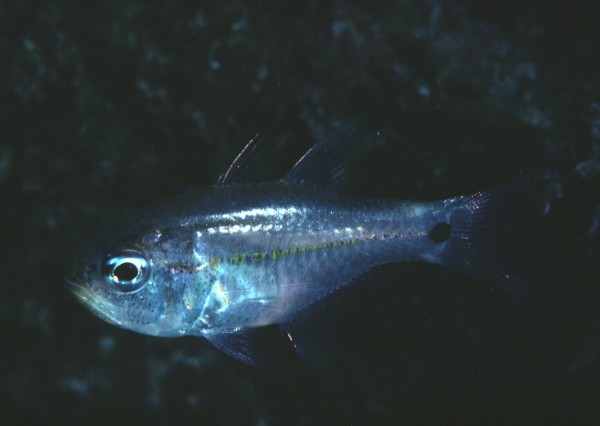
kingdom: Animalia
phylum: Chordata
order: Perciformes
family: Apogonidae
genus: Taeniamia
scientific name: Taeniamia mozambiquensis
